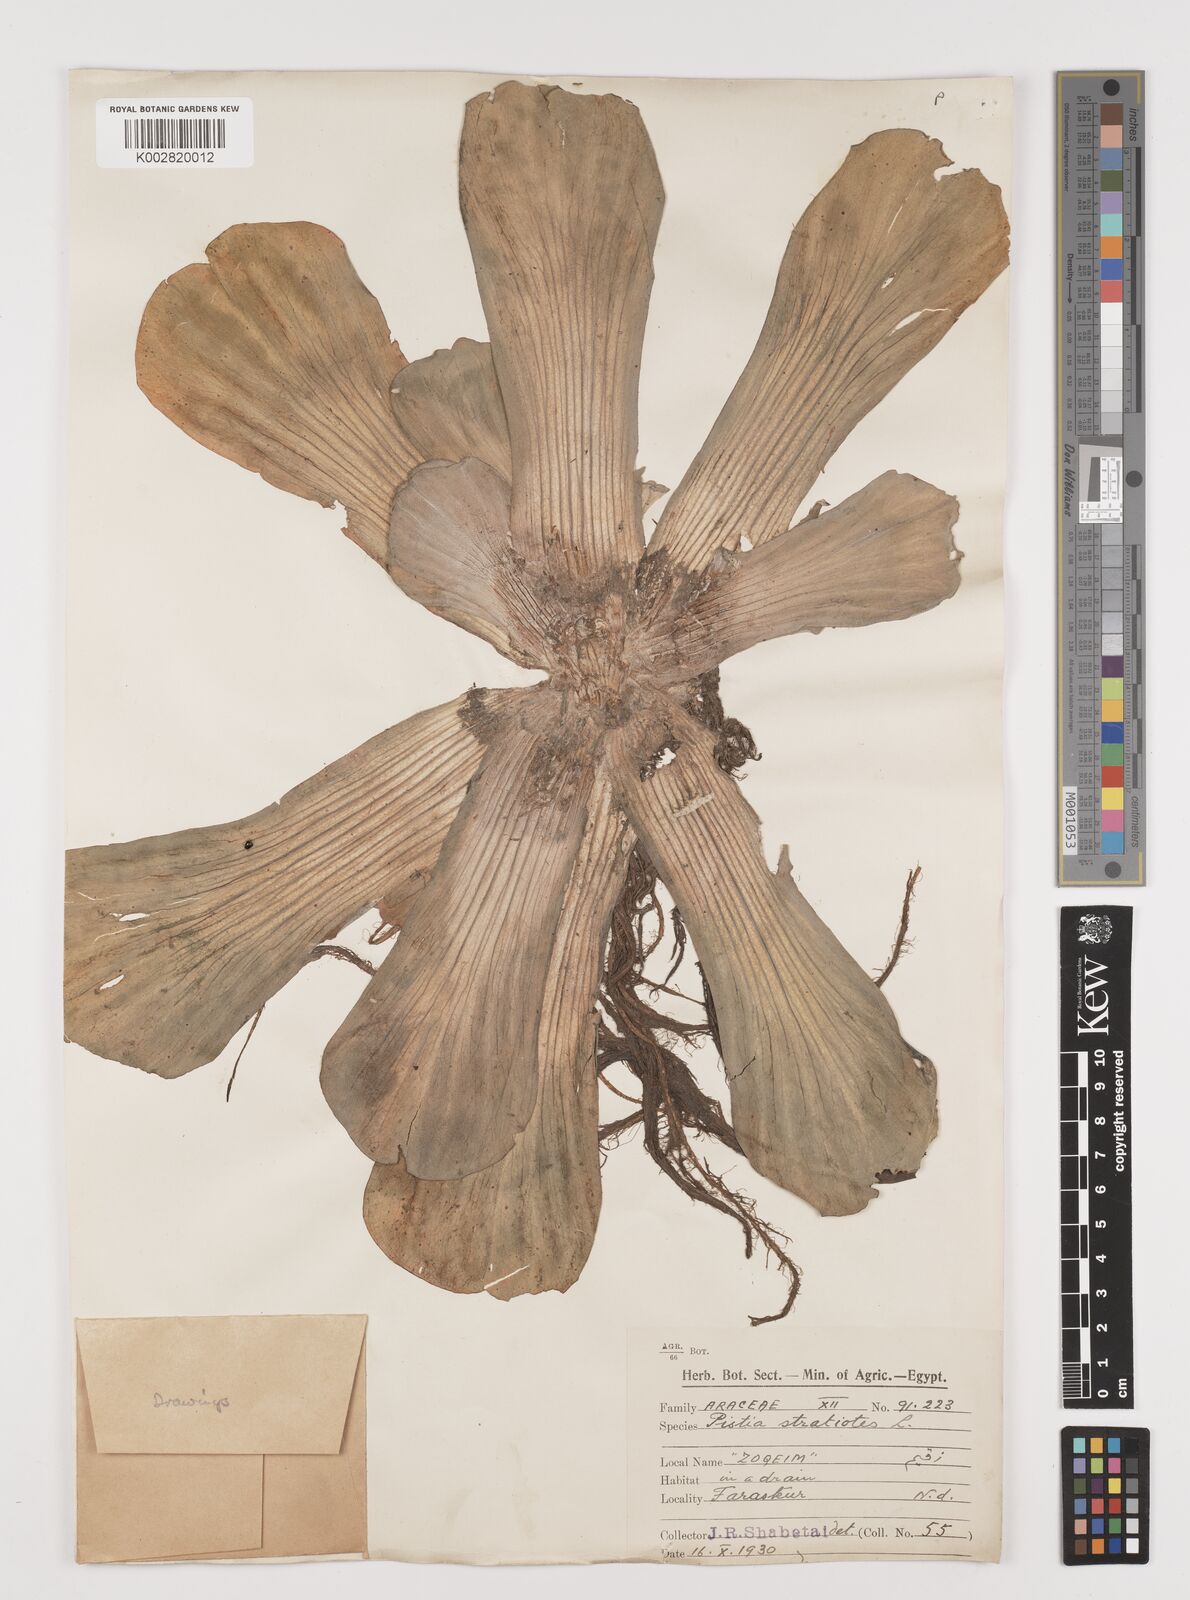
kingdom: Plantae
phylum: Tracheophyta
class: Liliopsida
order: Alismatales
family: Araceae
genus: Pistia
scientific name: Pistia stratiotes
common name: Water lettuce
